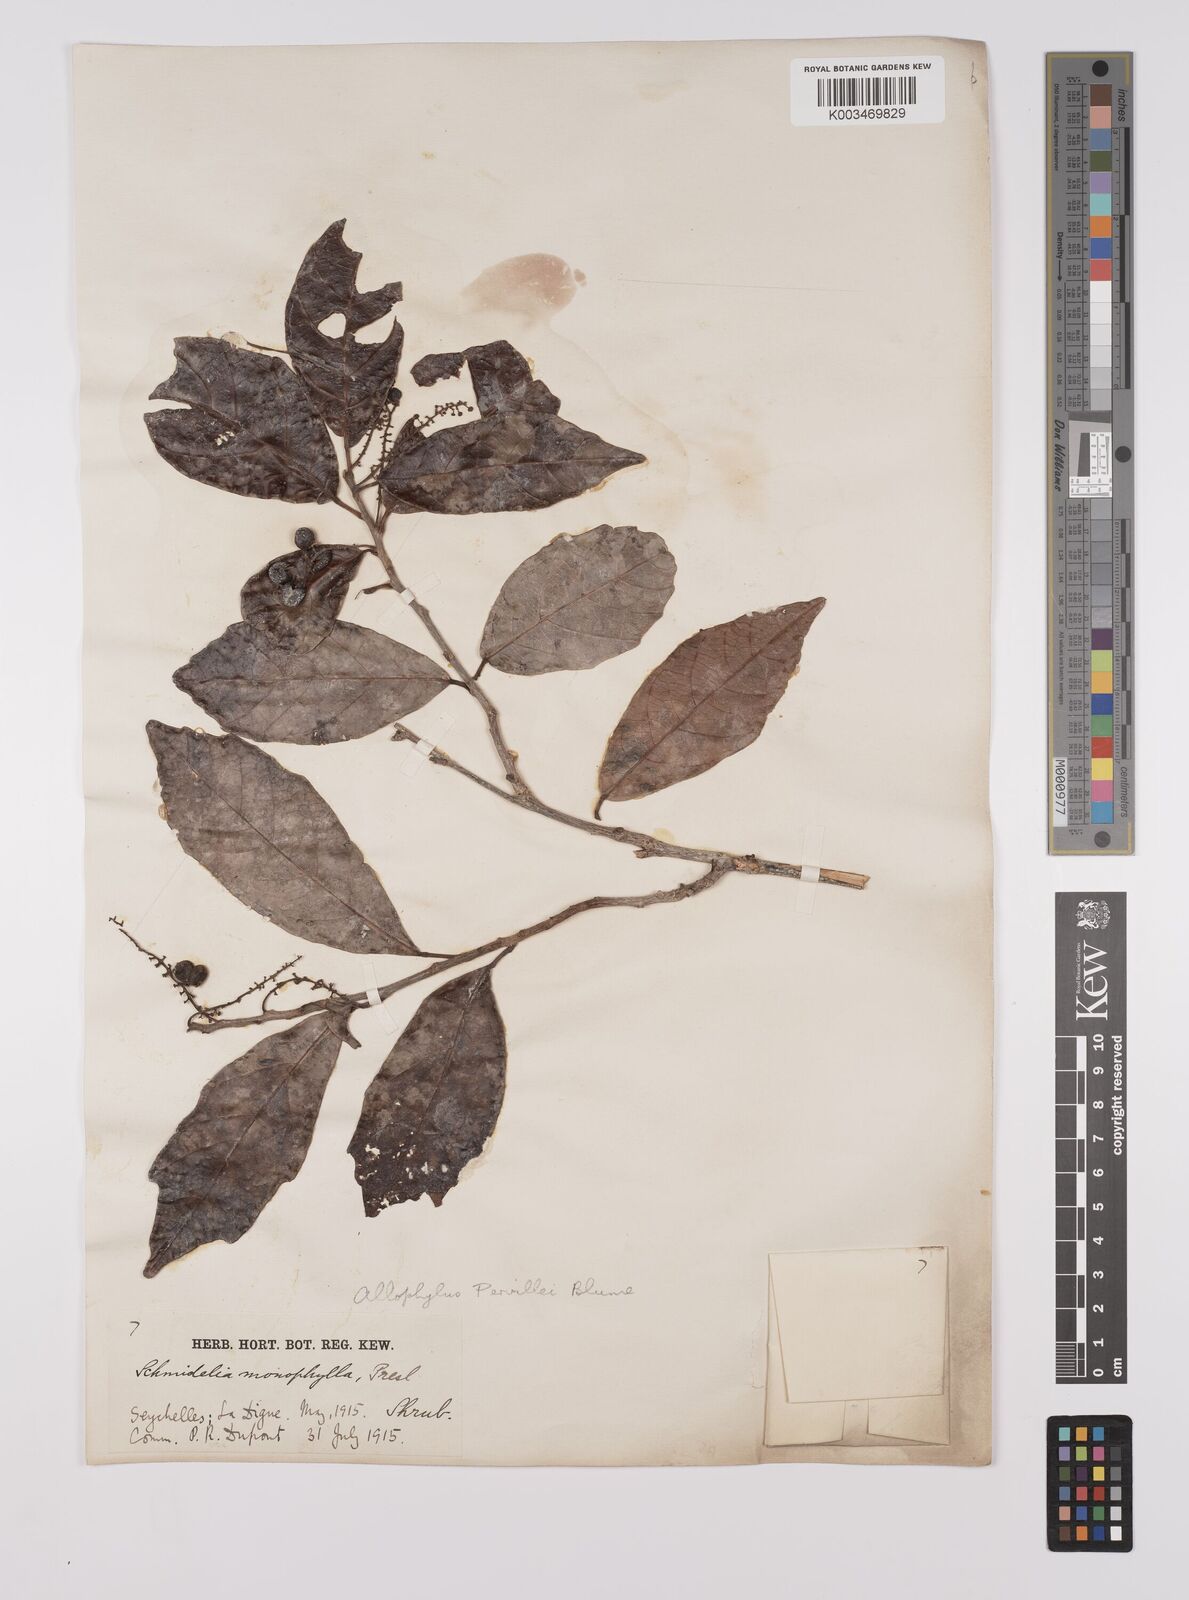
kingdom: Plantae
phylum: Tracheophyta
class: Magnoliopsida
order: Sapindales
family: Sapindaceae
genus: Allophylus
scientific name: Allophylus pervillei
